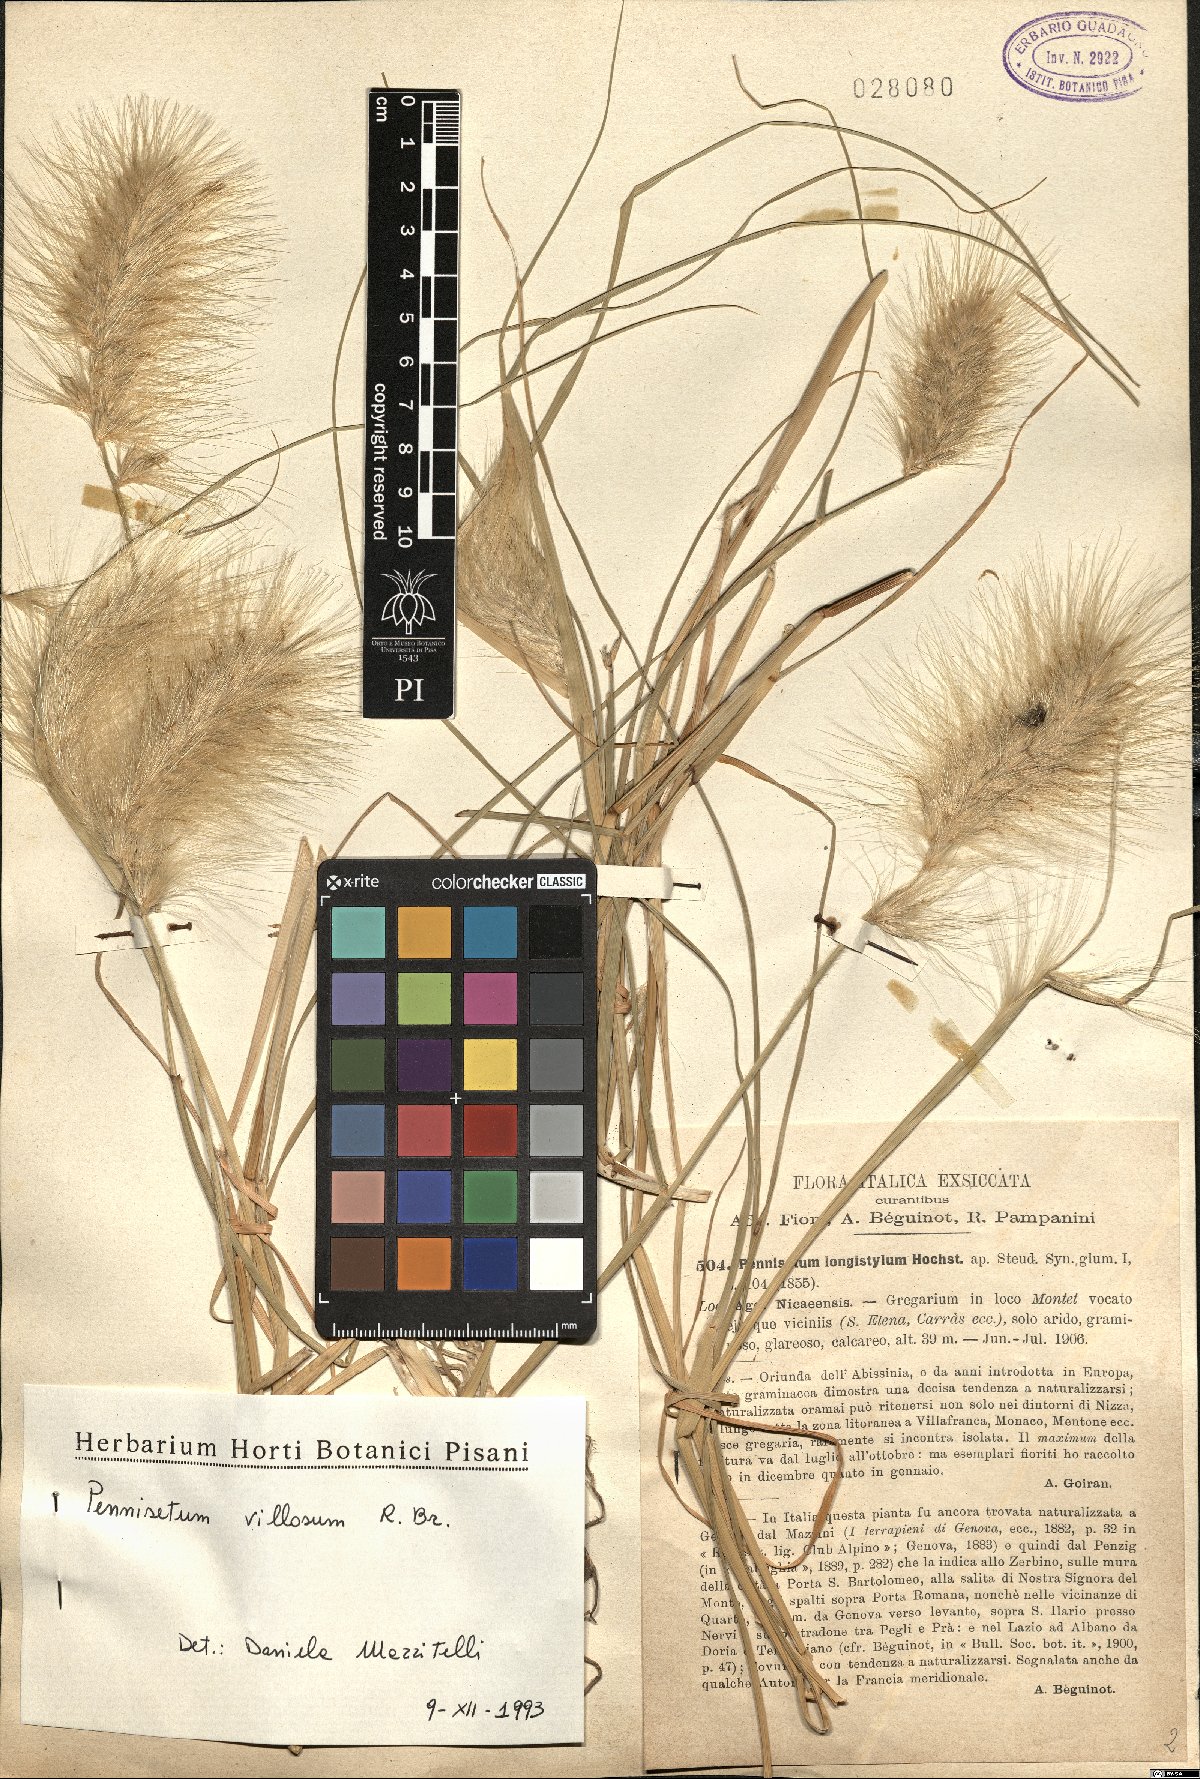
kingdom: Plantae
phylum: Tracheophyta
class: Liliopsida
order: Poales
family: Poaceae
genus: Cenchrus
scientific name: Cenchrus longisetus
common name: Feathertop
